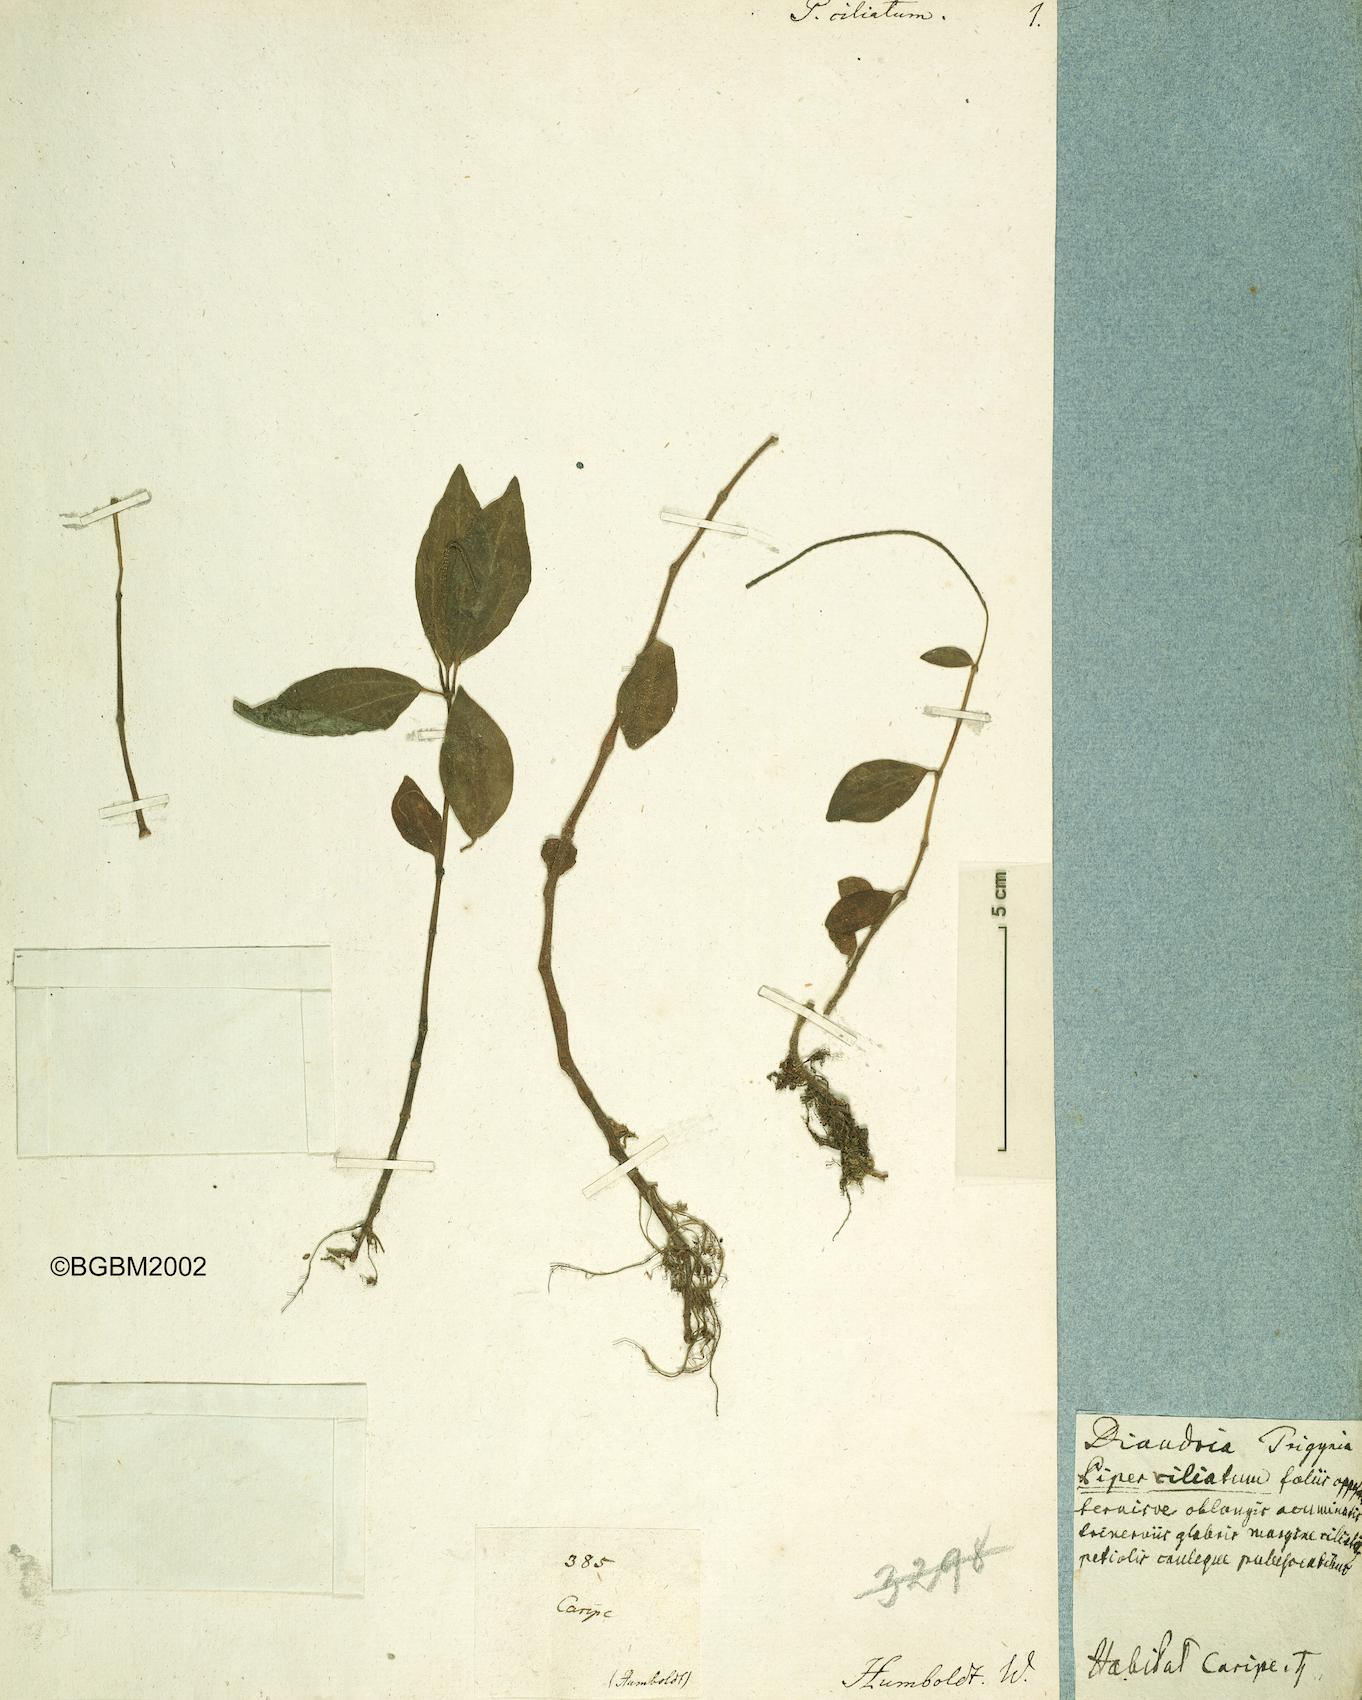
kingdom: Plantae
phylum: Tracheophyta
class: Magnoliopsida
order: Piperales
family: Piperaceae
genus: Peperomia
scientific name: Peperomia ciliata
